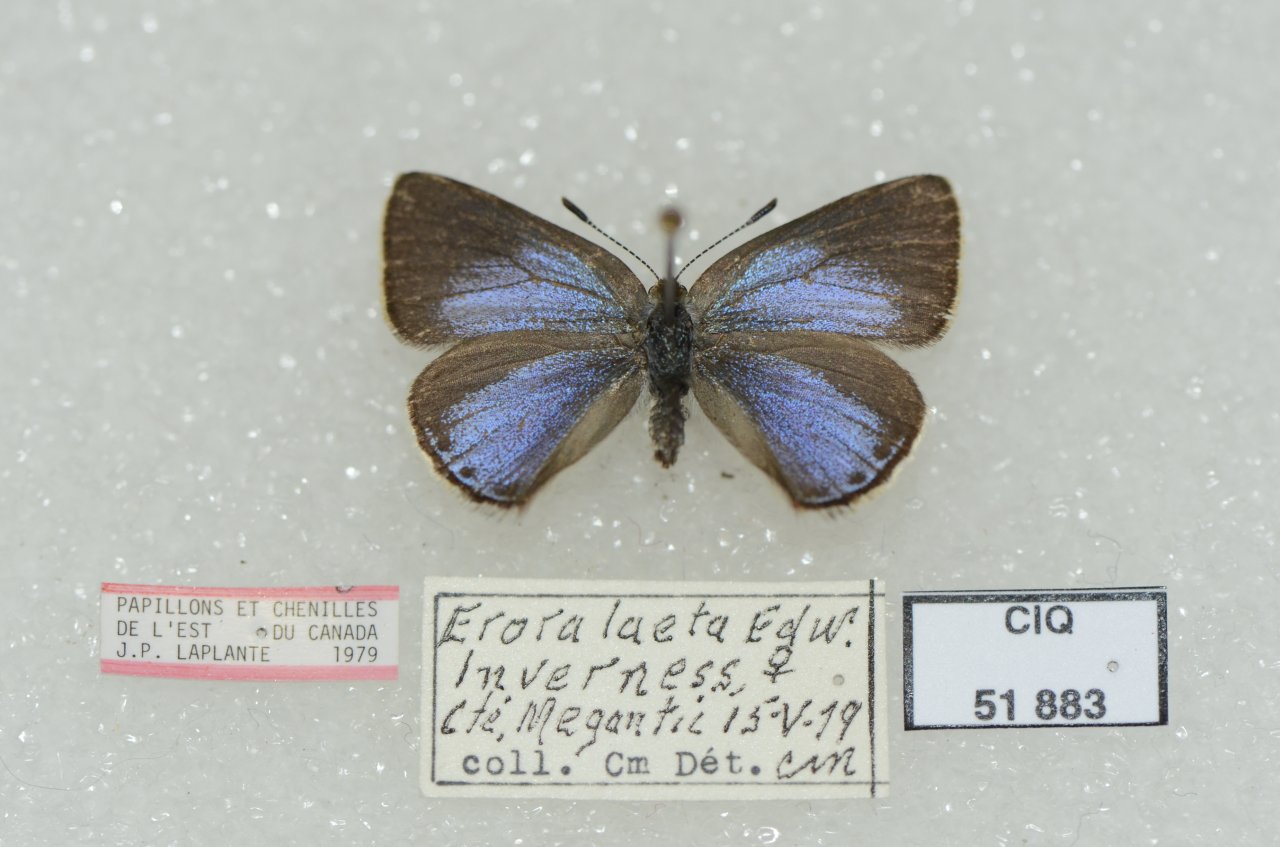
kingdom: Animalia
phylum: Arthropoda
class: Insecta
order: Lepidoptera
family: Lycaenidae
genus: Erora
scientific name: Erora laeta
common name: Early Hairstreak
